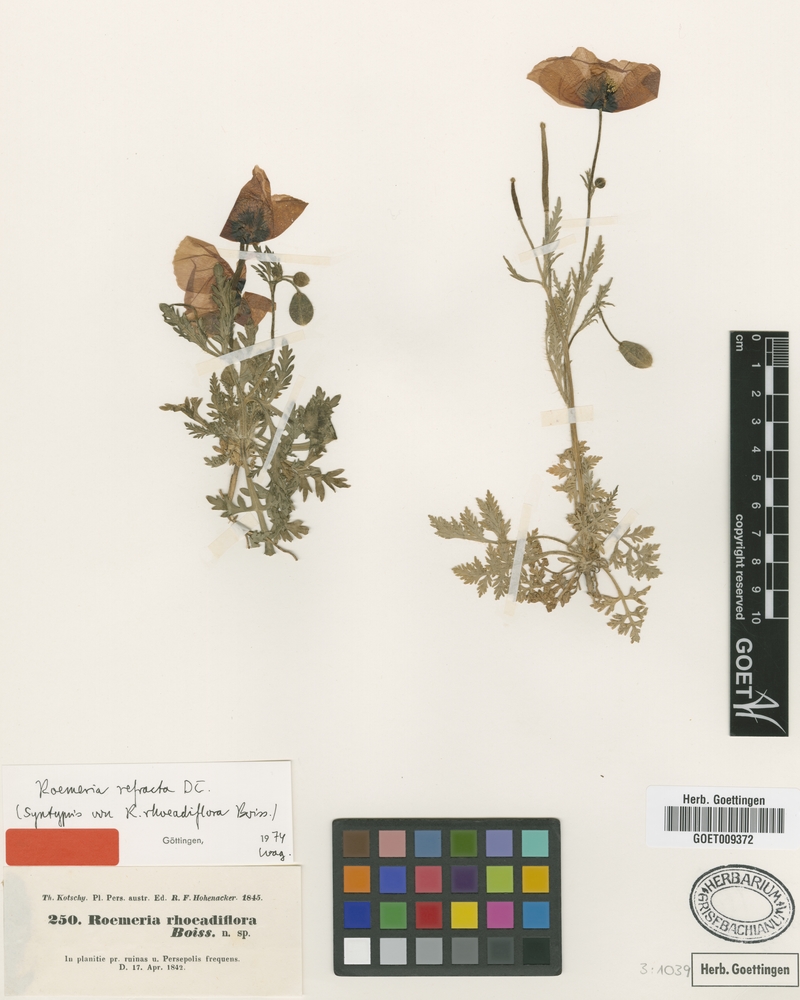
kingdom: Plantae
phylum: Tracheophyta
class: Magnoliopsida
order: Ranunculales
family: Papaveraceae
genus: Roemeria
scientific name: Roemeria refracta
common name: Spotted asian poppy
